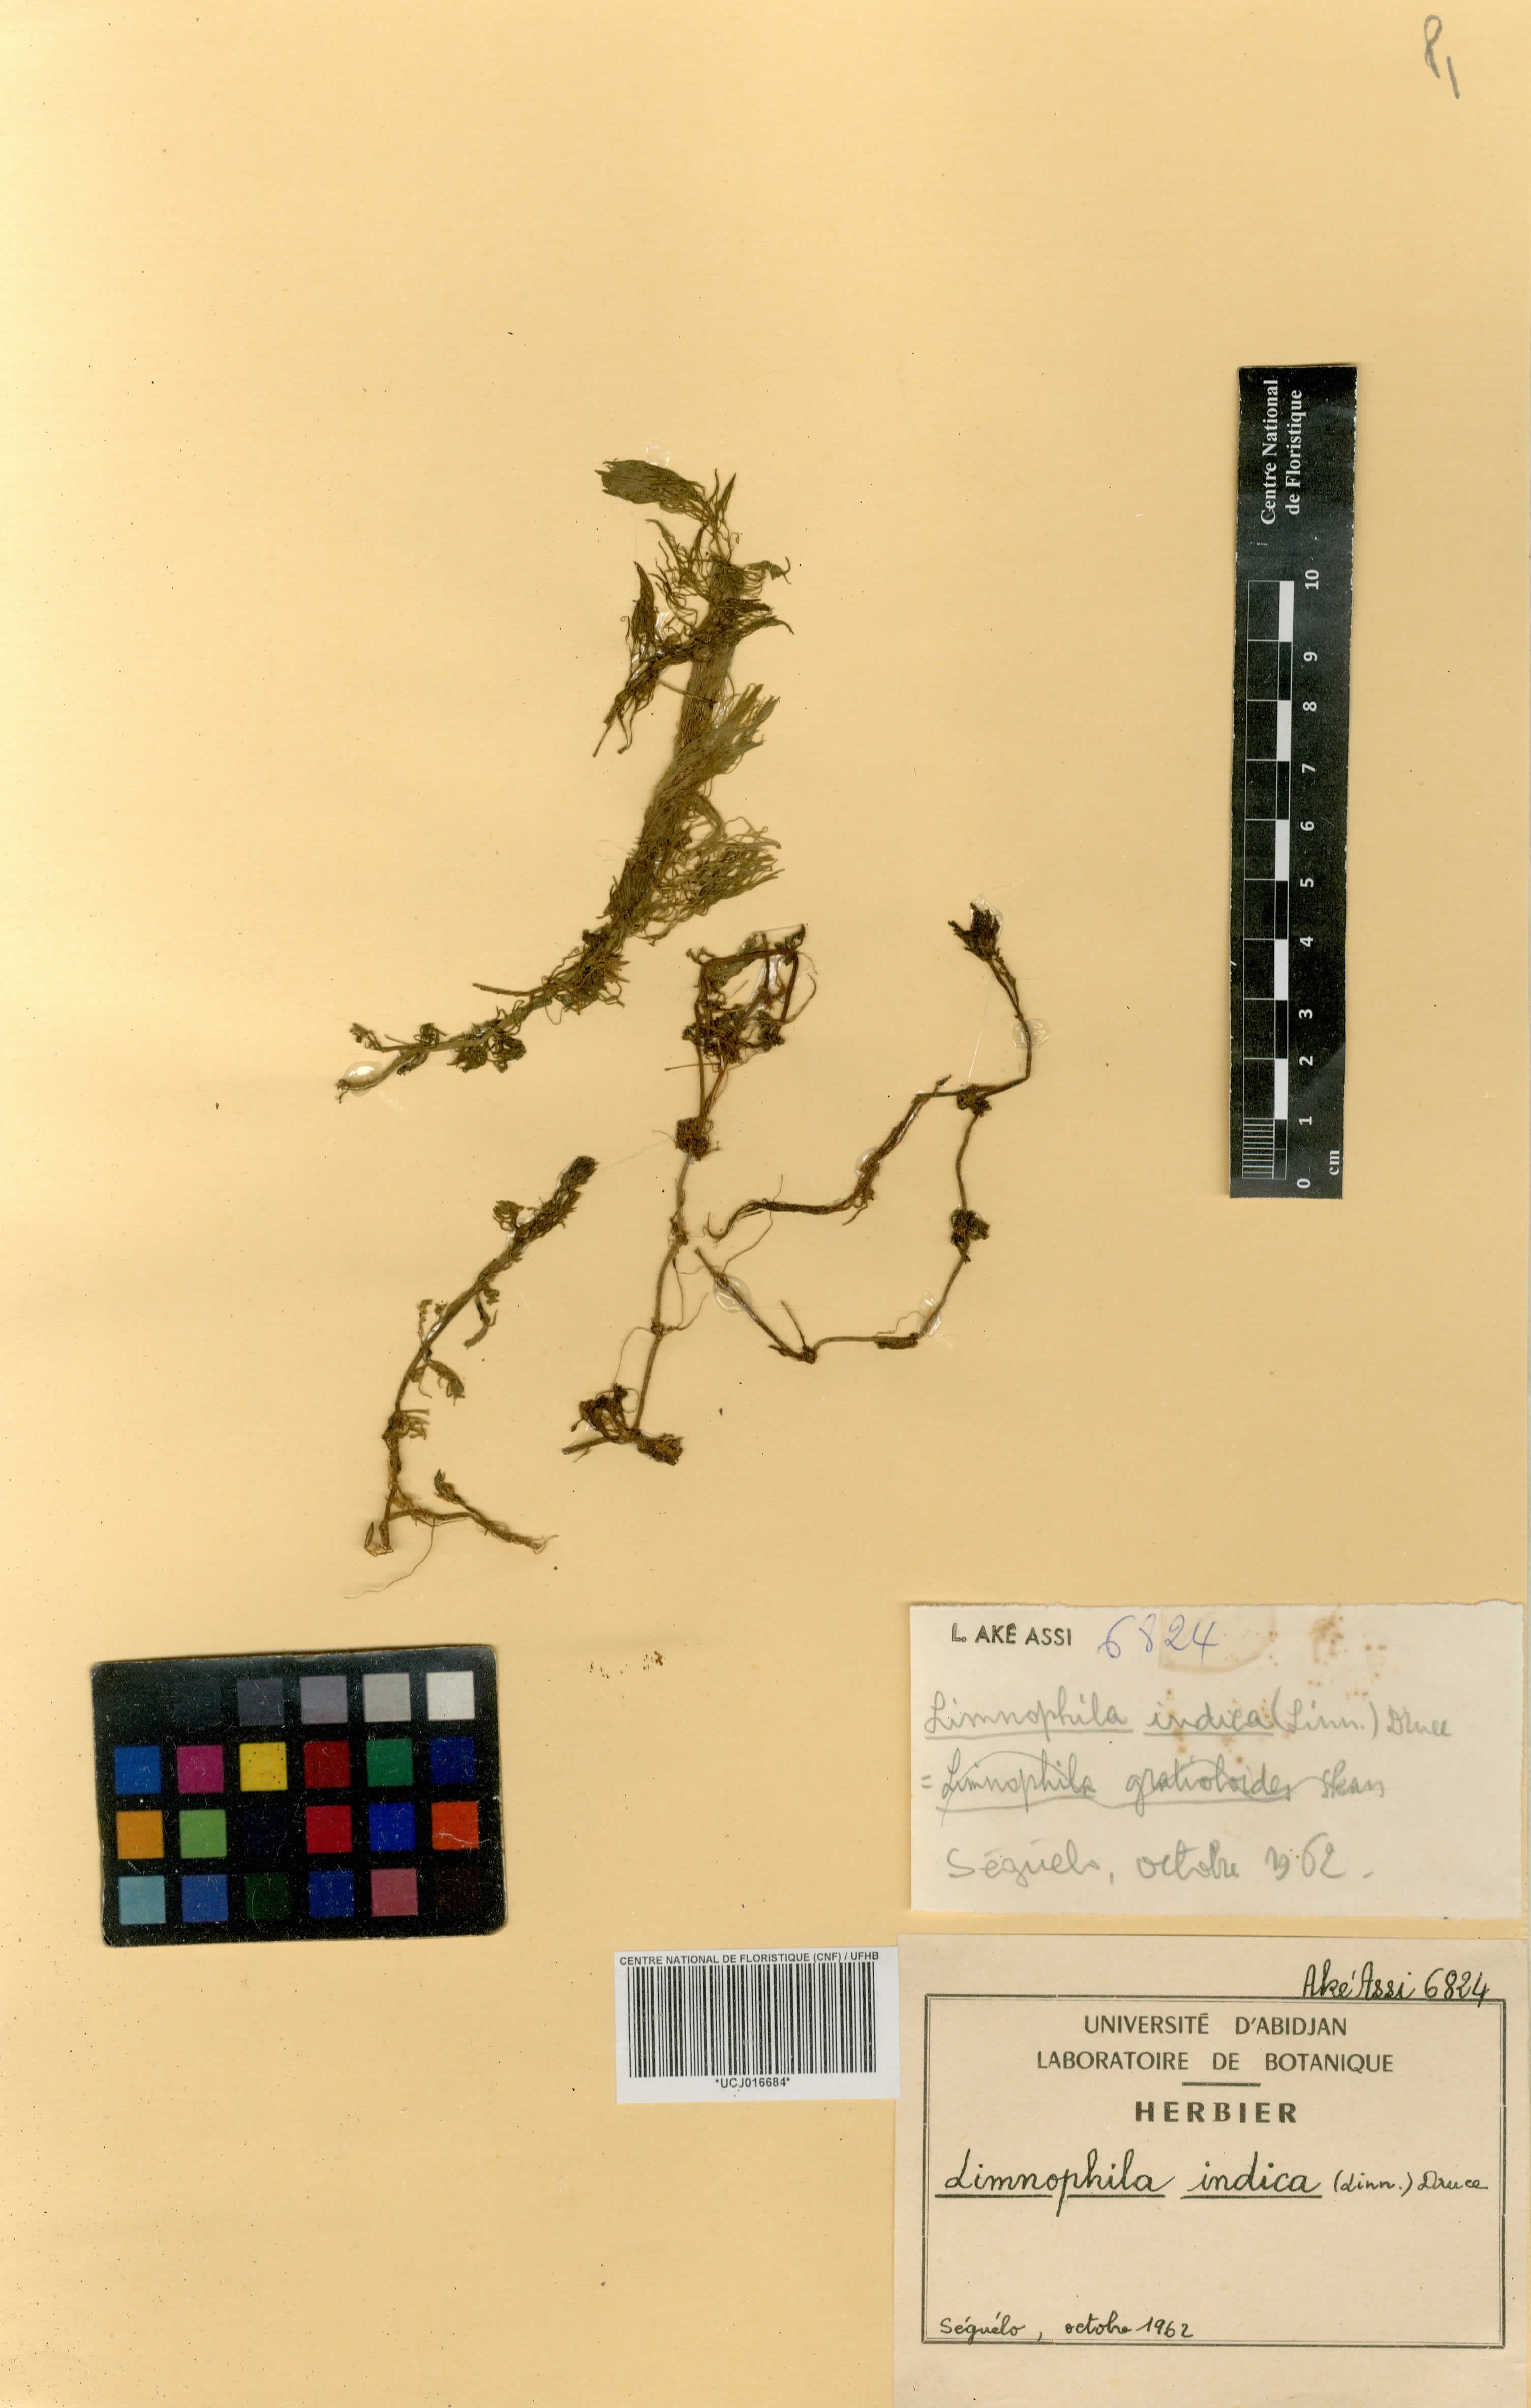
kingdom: Plantae
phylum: Tracheophyta
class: Magnoliopsida
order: Lamiales
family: Plantaginaceae
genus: Limnophila
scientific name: Limnophila indica
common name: Indian marshweed
